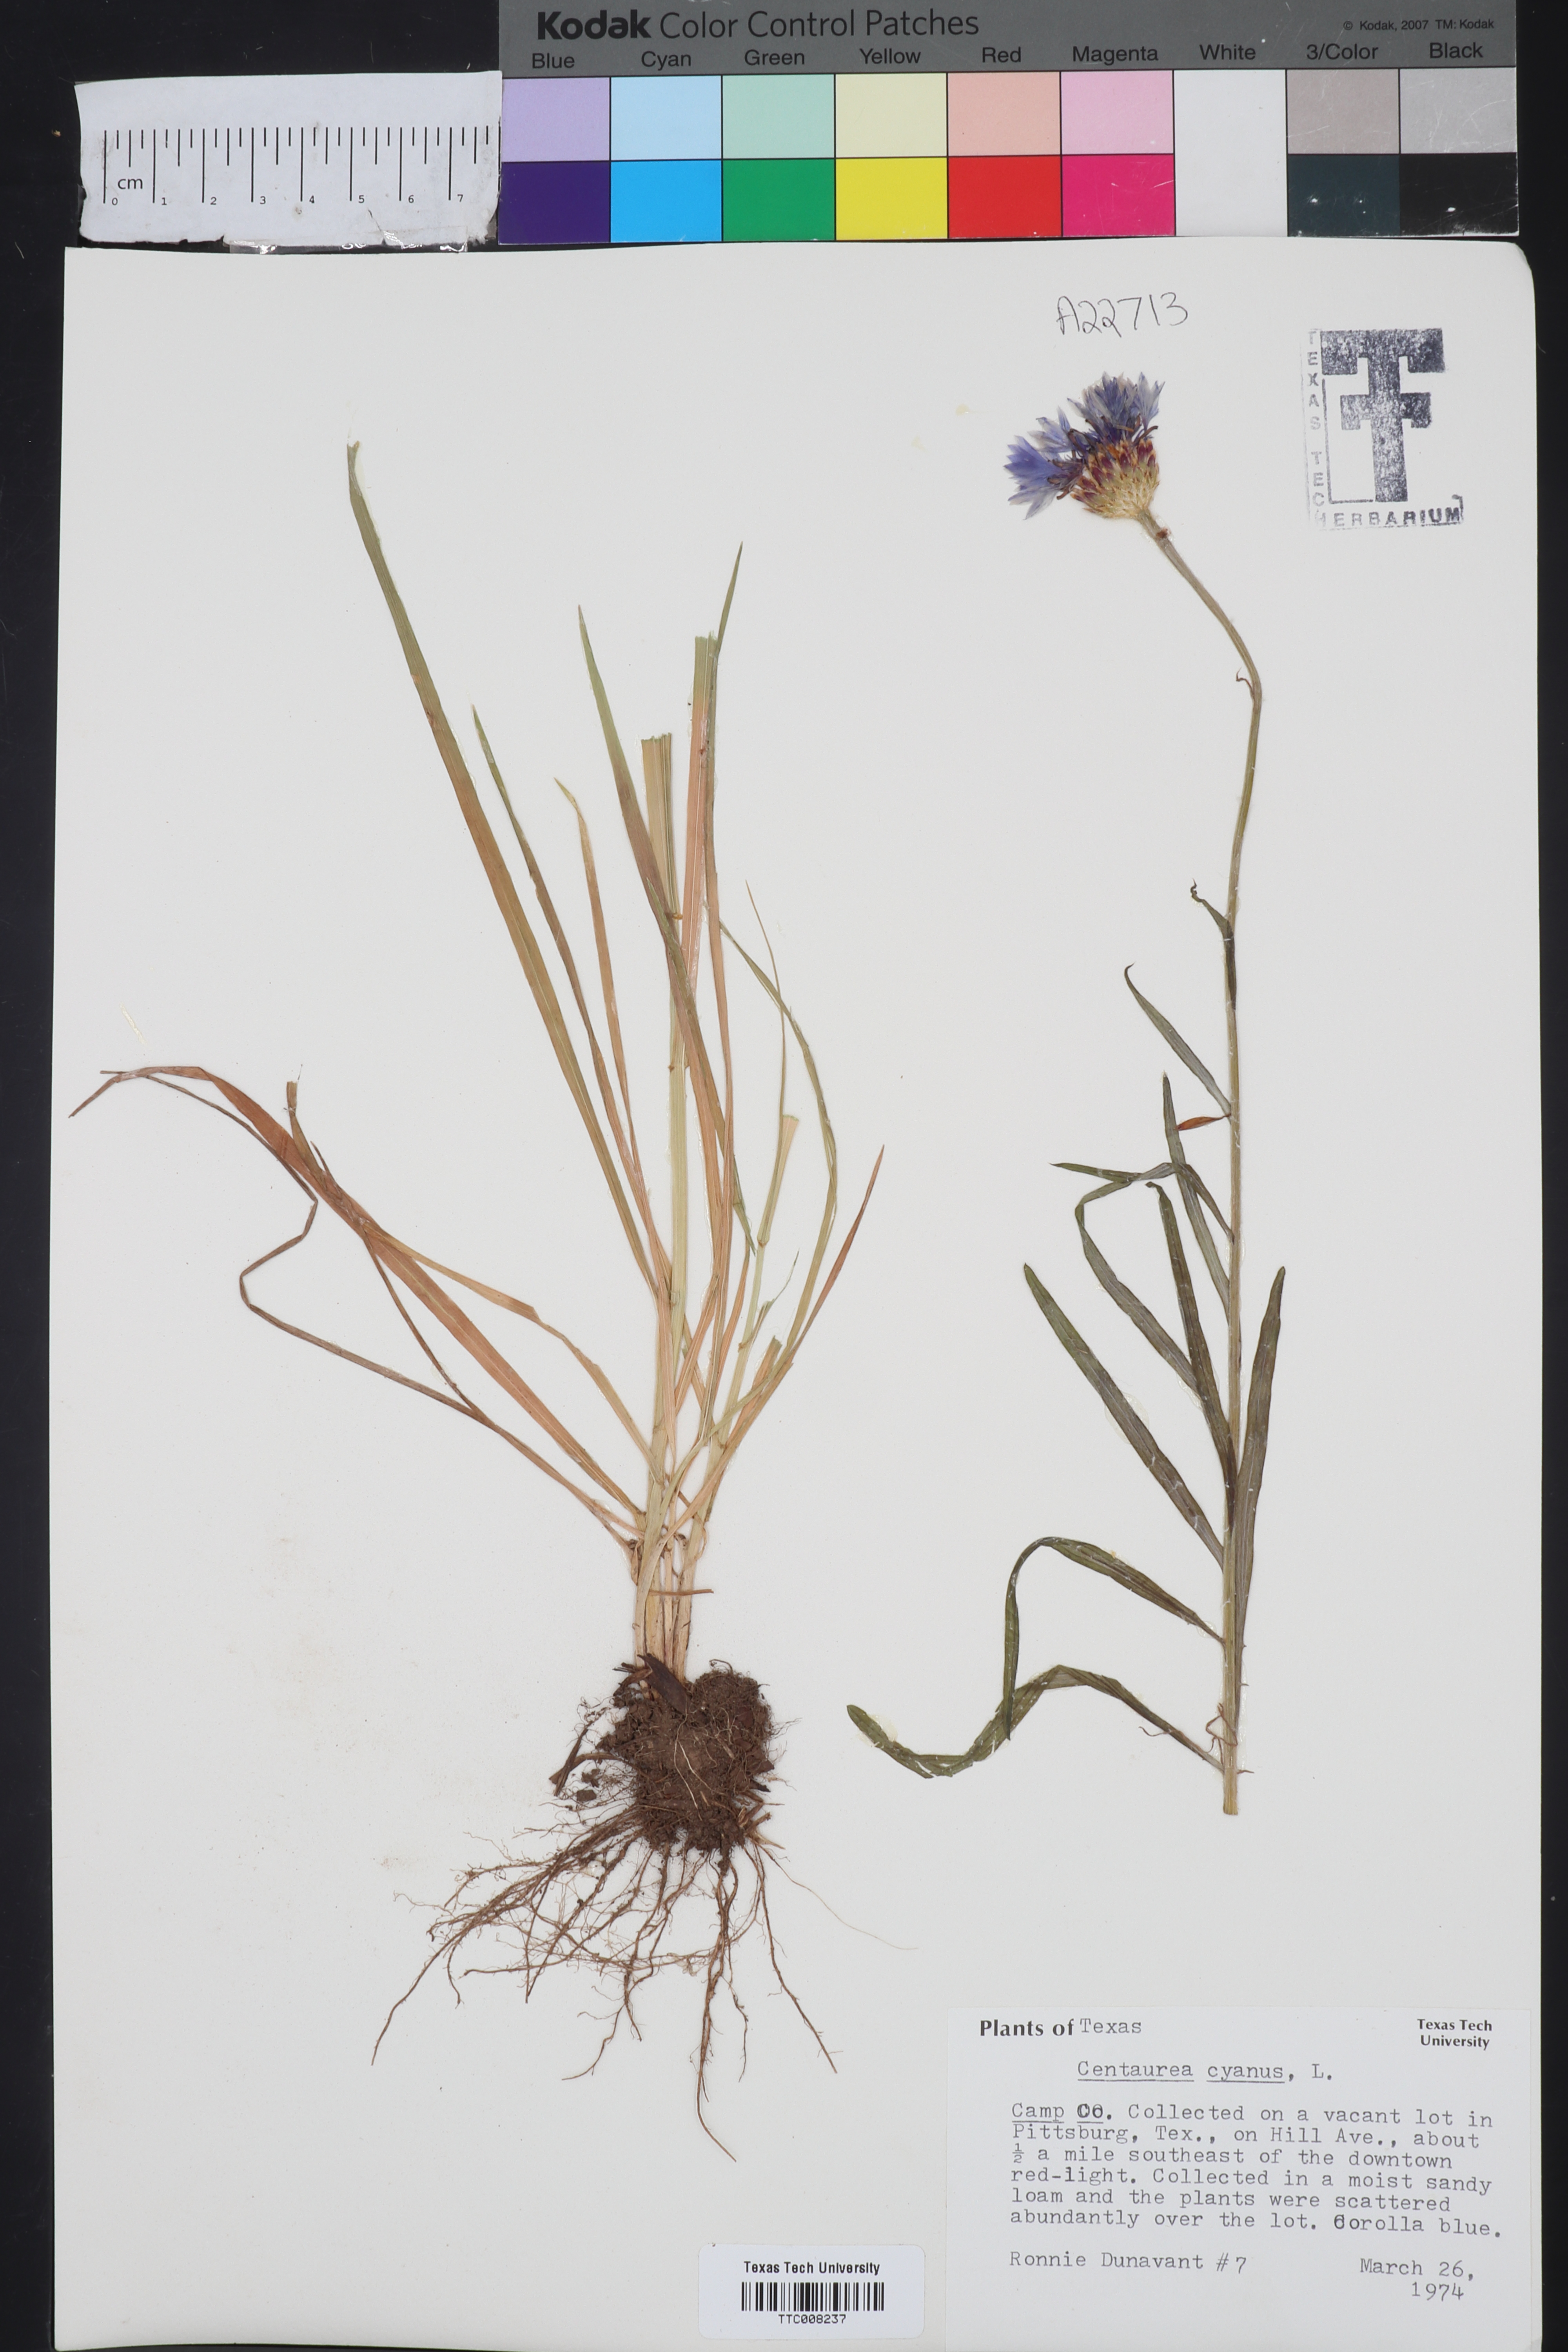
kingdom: Plantae
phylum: Tracheophyta
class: Magnoliopsida
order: Asterales
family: Asteraceae
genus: Centaurea
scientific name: Centaurea cyanus
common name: Cornflower
